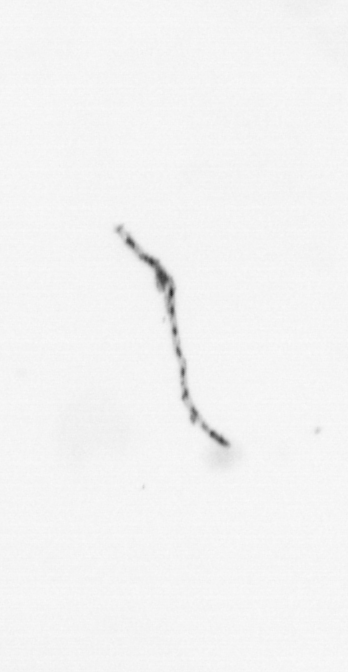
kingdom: Chromista
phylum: Ochrophyta
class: Bacillariophyceae
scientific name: Bacillariophyceae
